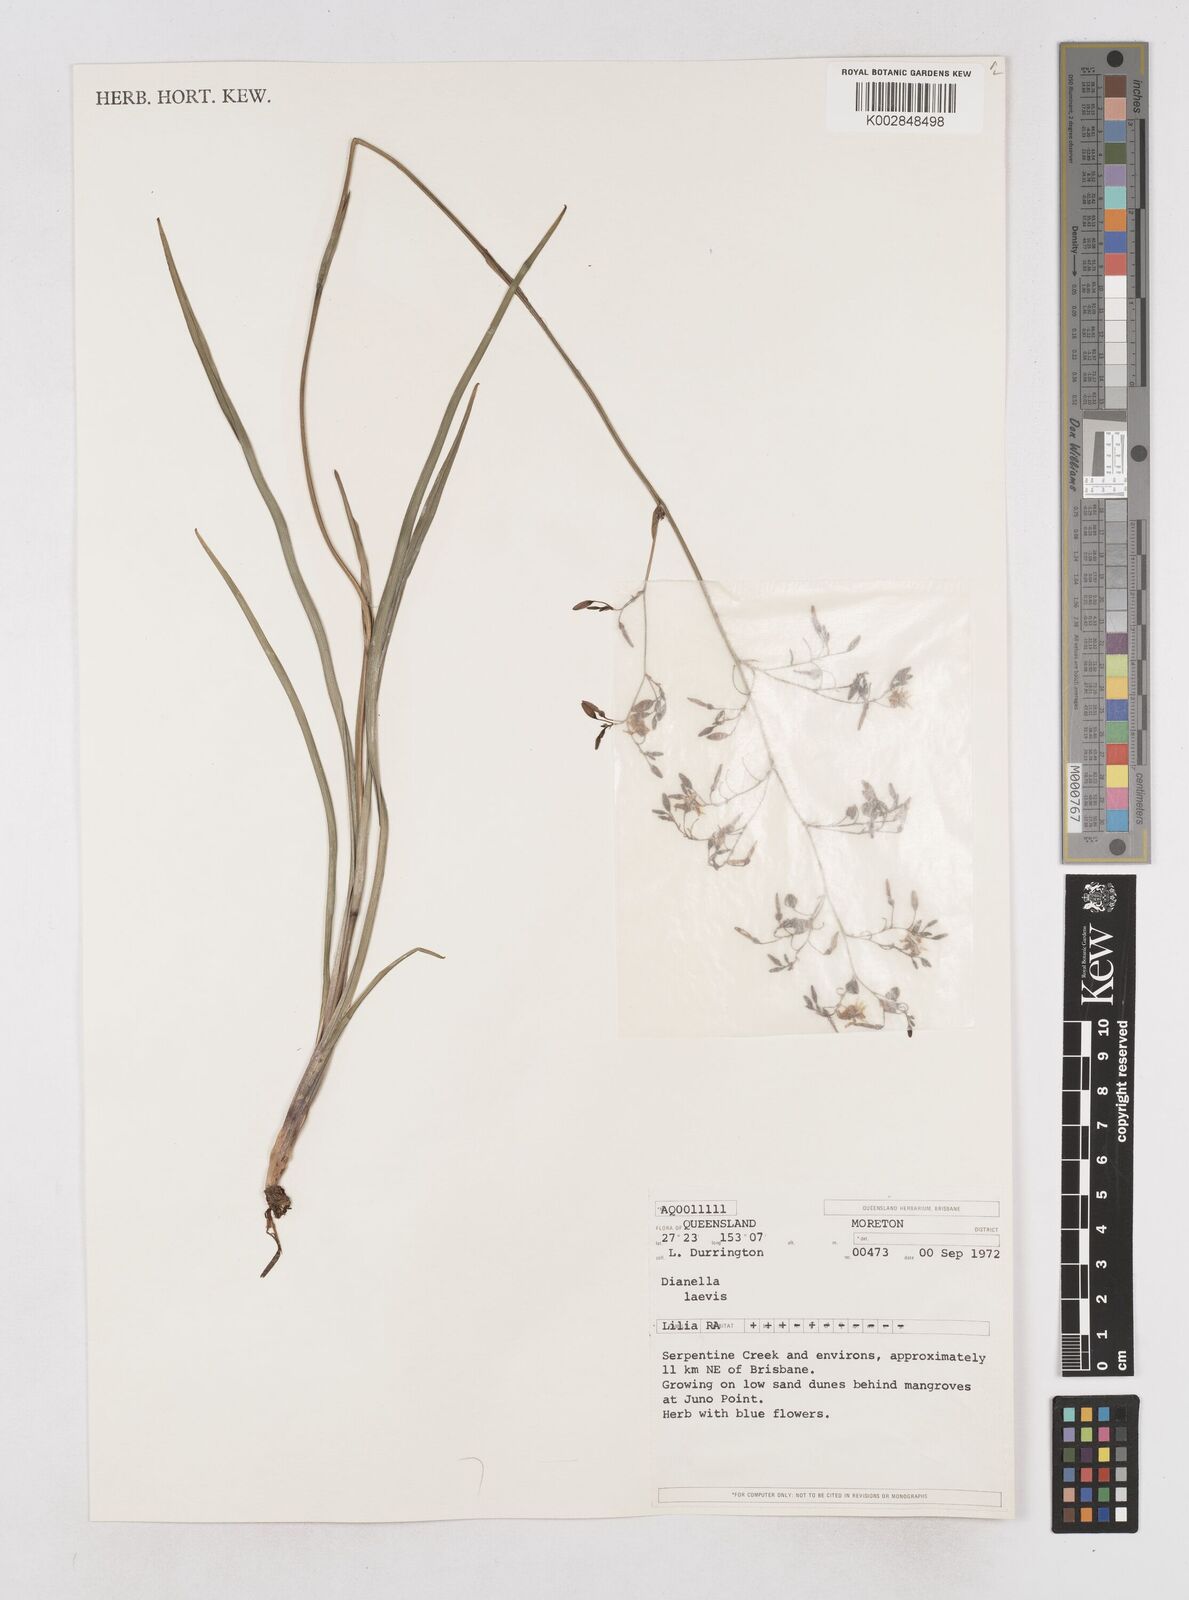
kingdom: Plantae
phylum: Tracheophyta
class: Liliopsida
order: Asparagales
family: Asphodelaceae
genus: Dianella
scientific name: Dianella longifolia
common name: Blue flax-lily
